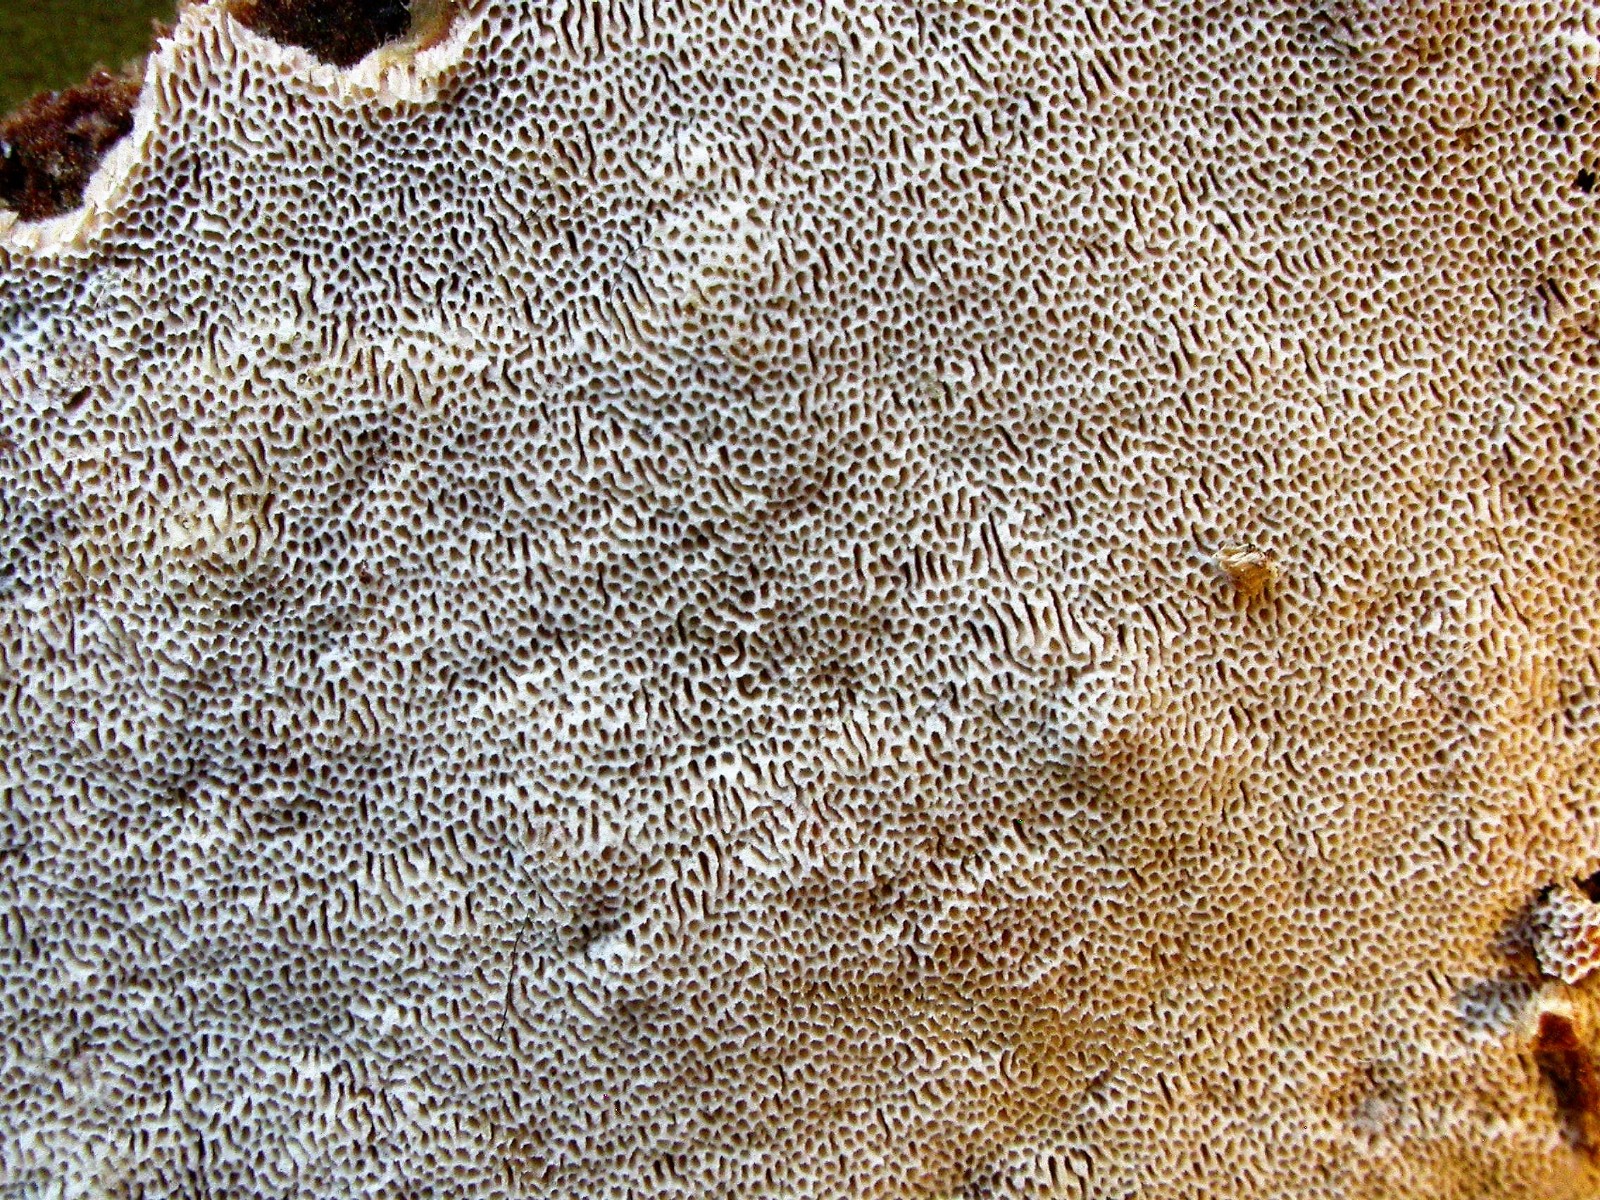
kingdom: Fungi
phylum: Basidiomycota
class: Agaricomycetes
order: Hymenochaetales
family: Schizoporaceae
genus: Xylodon
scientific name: Xylodon subtropicus
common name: labyrint-tandsvamp
